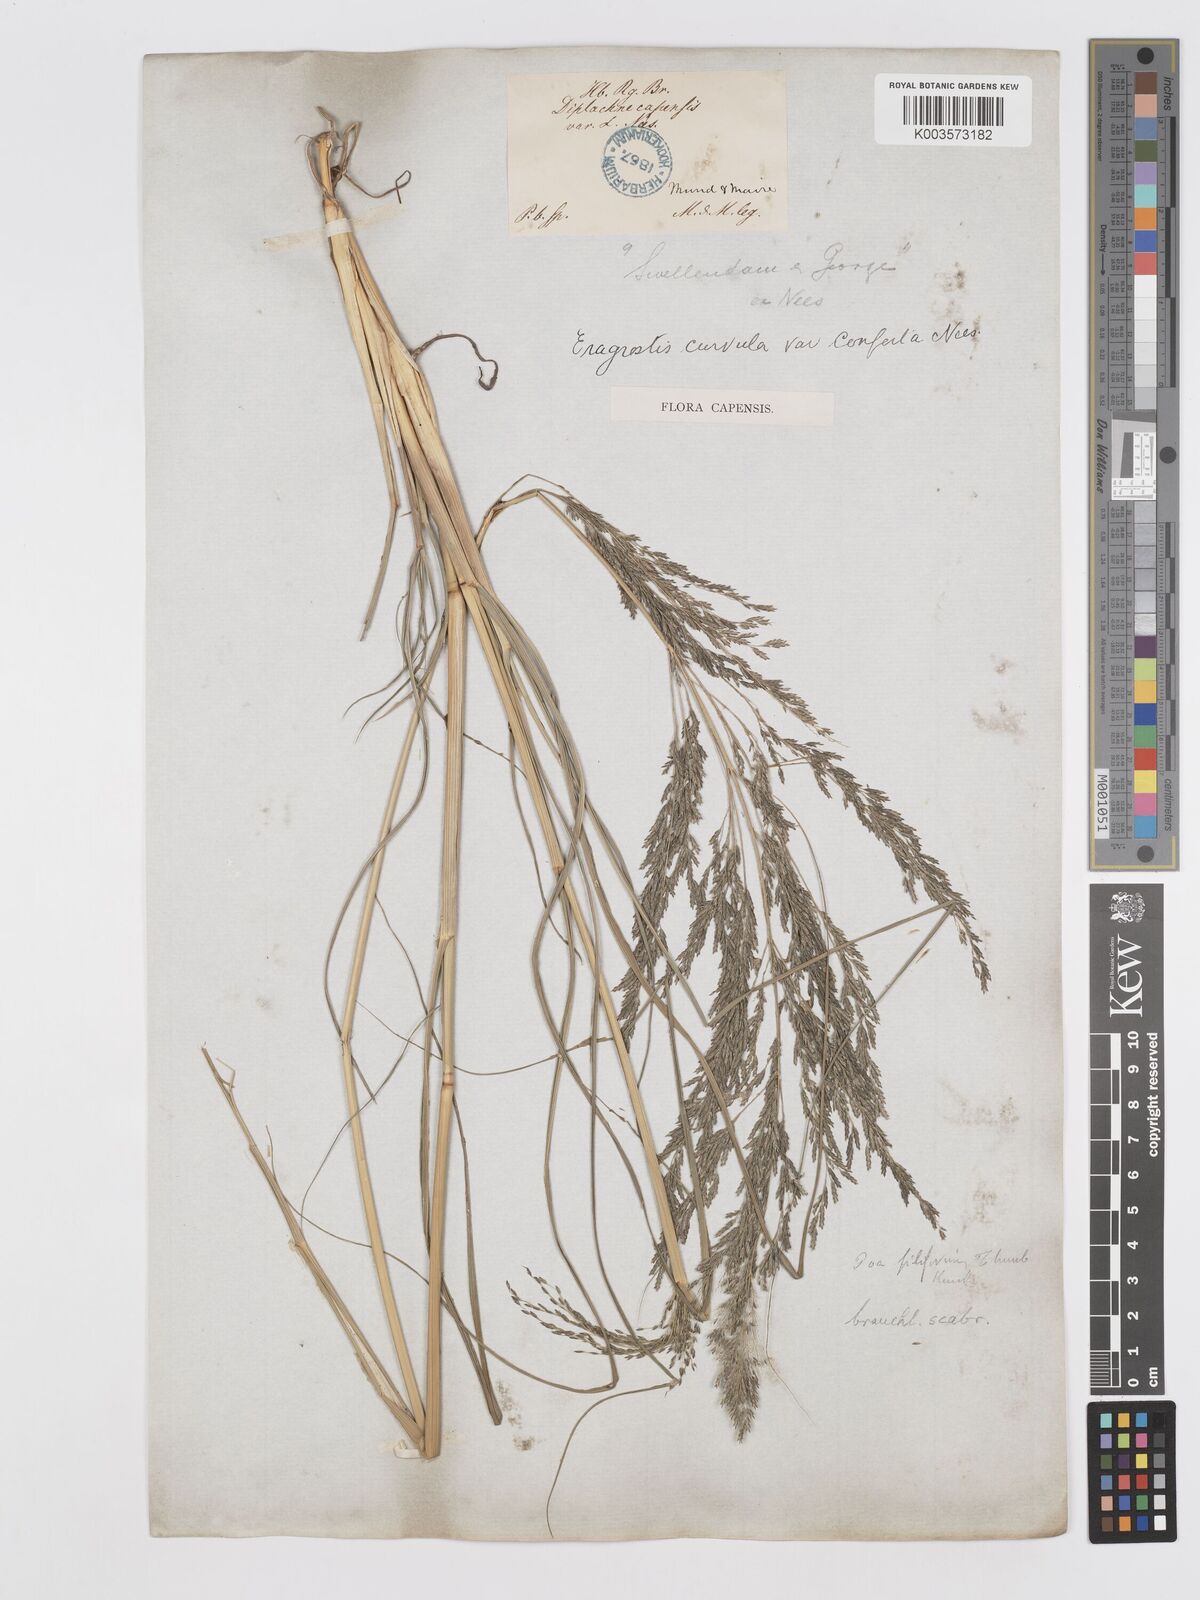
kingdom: Plantae
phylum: Tracheophyta
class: Liliopsida
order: Poales
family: Poaceae
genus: Eragrostis
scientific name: Eragrostis curvula
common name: African love-grass
